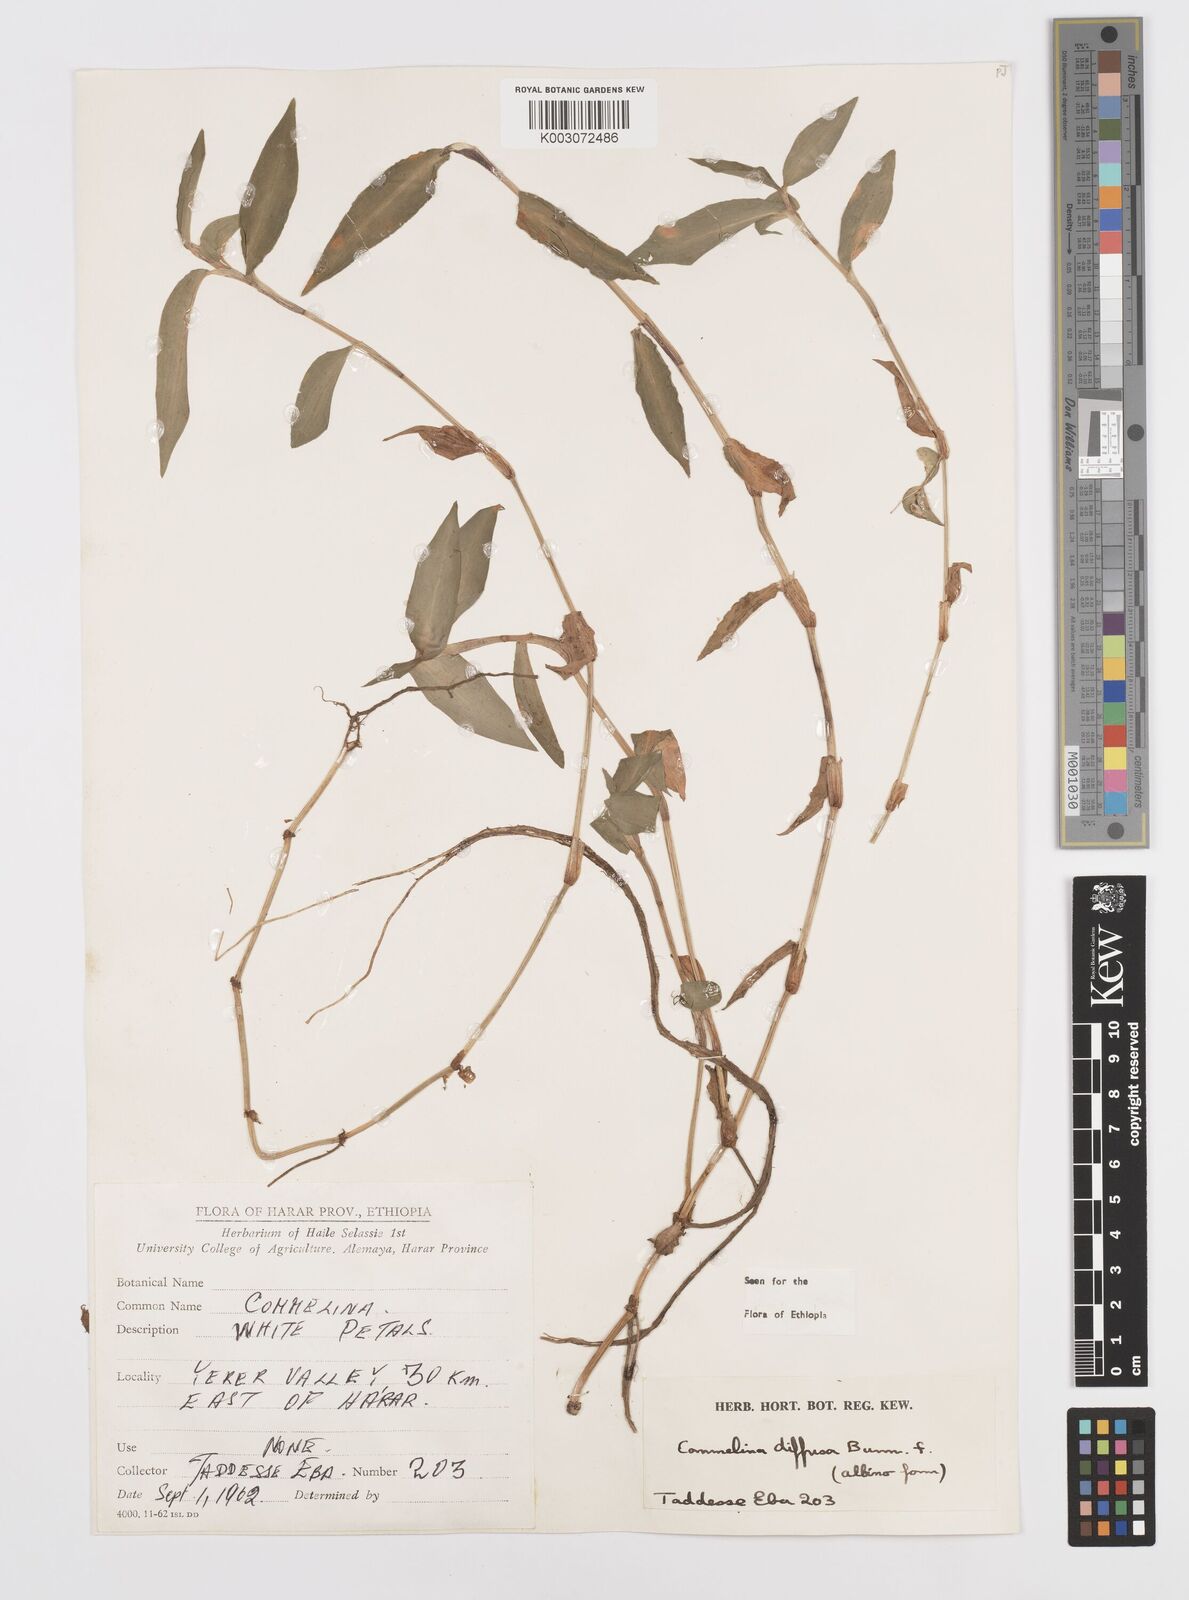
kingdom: Plantae
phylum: Tracheophyta
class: Liliopsida
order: Commelinales
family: Commelinaceae
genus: Commelina
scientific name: Commelina diffusa
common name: Climbing dayflower
